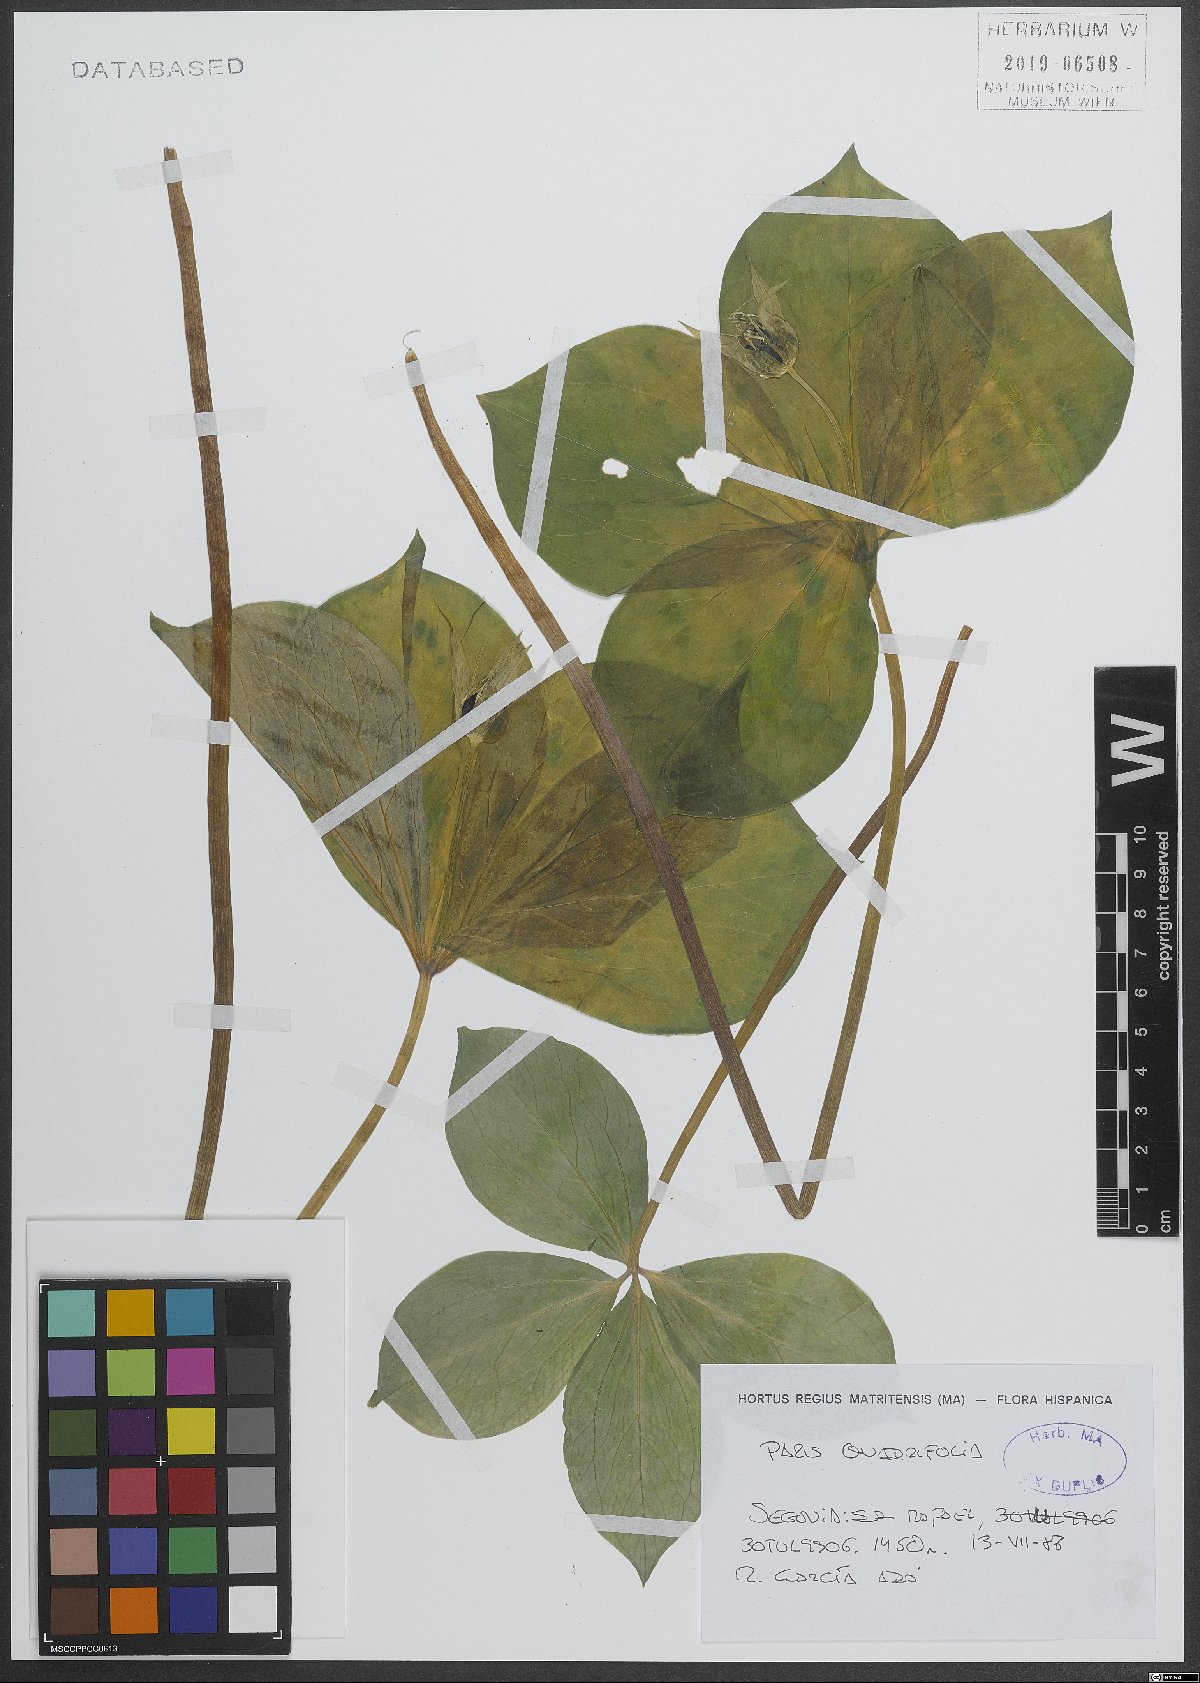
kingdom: Plantae
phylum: Tracheophyta
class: Liliopsida
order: Liliales
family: Melanthiaceae
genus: Paris
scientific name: Paris quadrifolia
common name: Herb-paris
